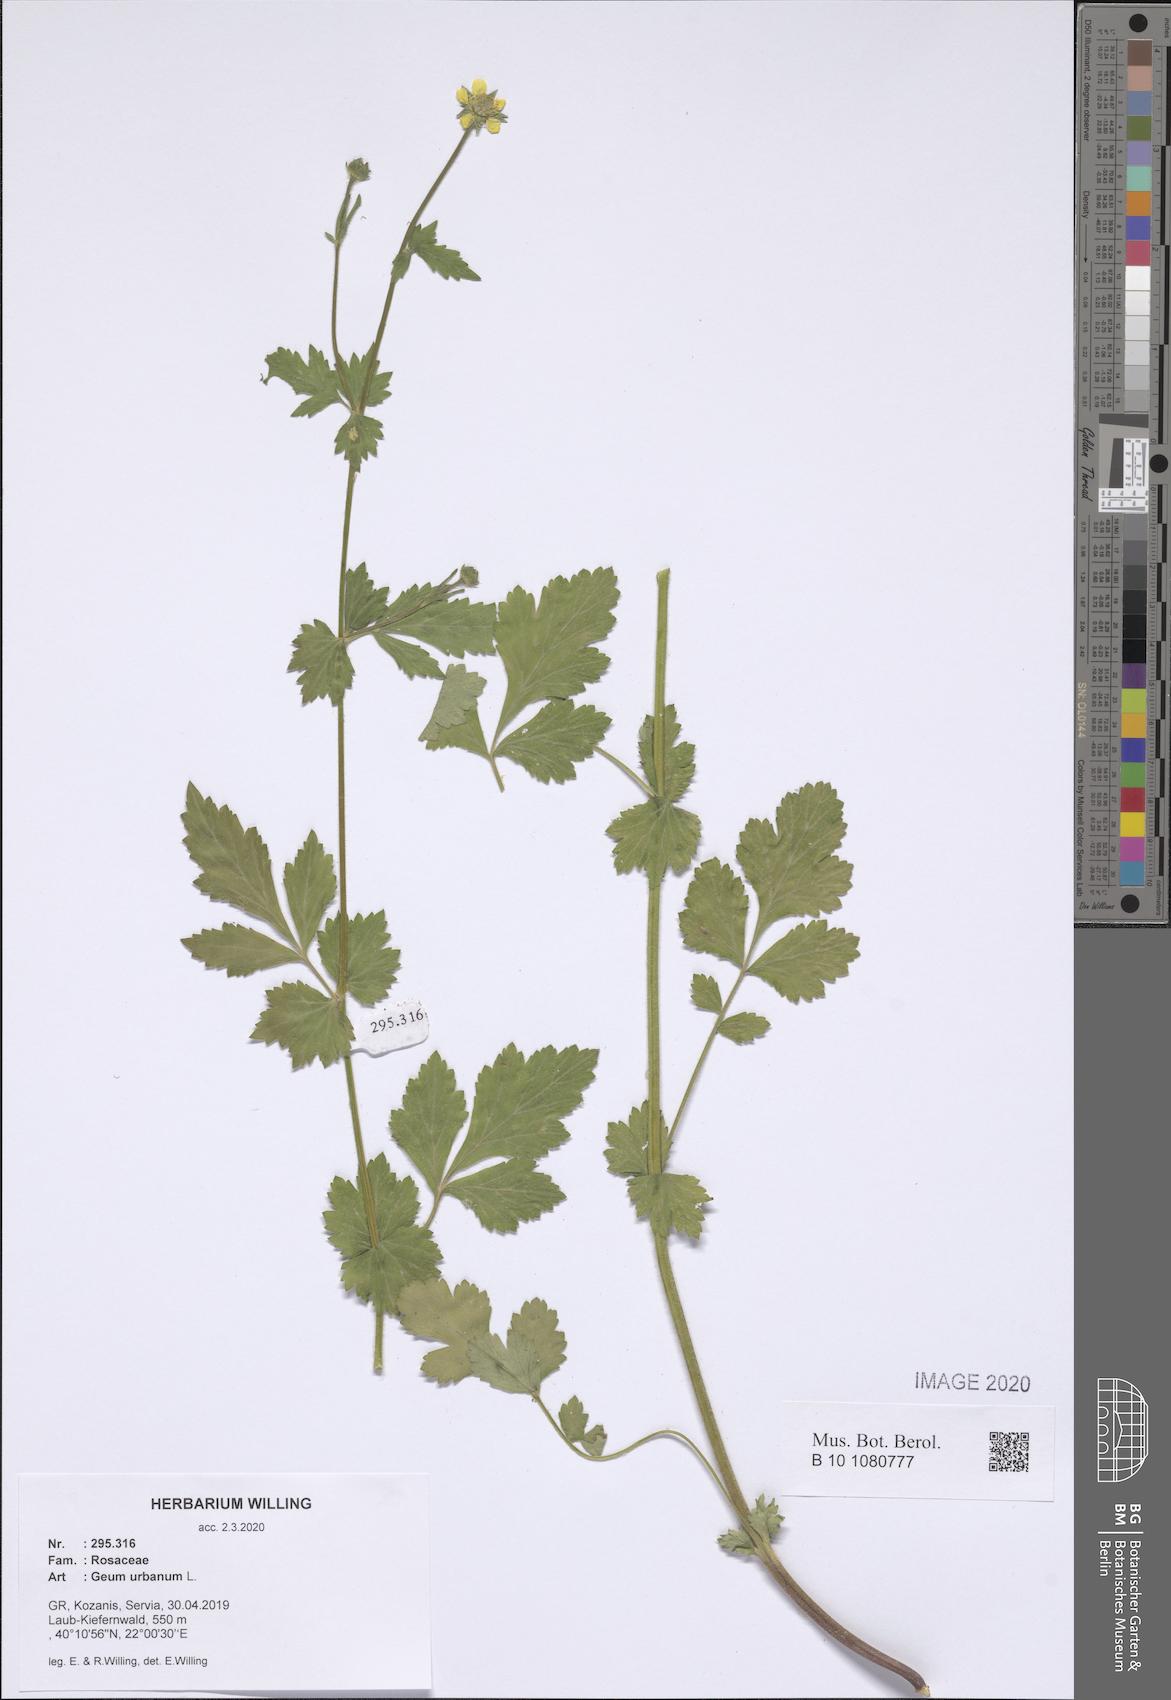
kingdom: Plantae
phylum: Tracheophyta
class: Magnoliopsida
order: Rosales
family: Rosaceae
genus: Geum
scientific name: Geum urbanum
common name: Wood avens
